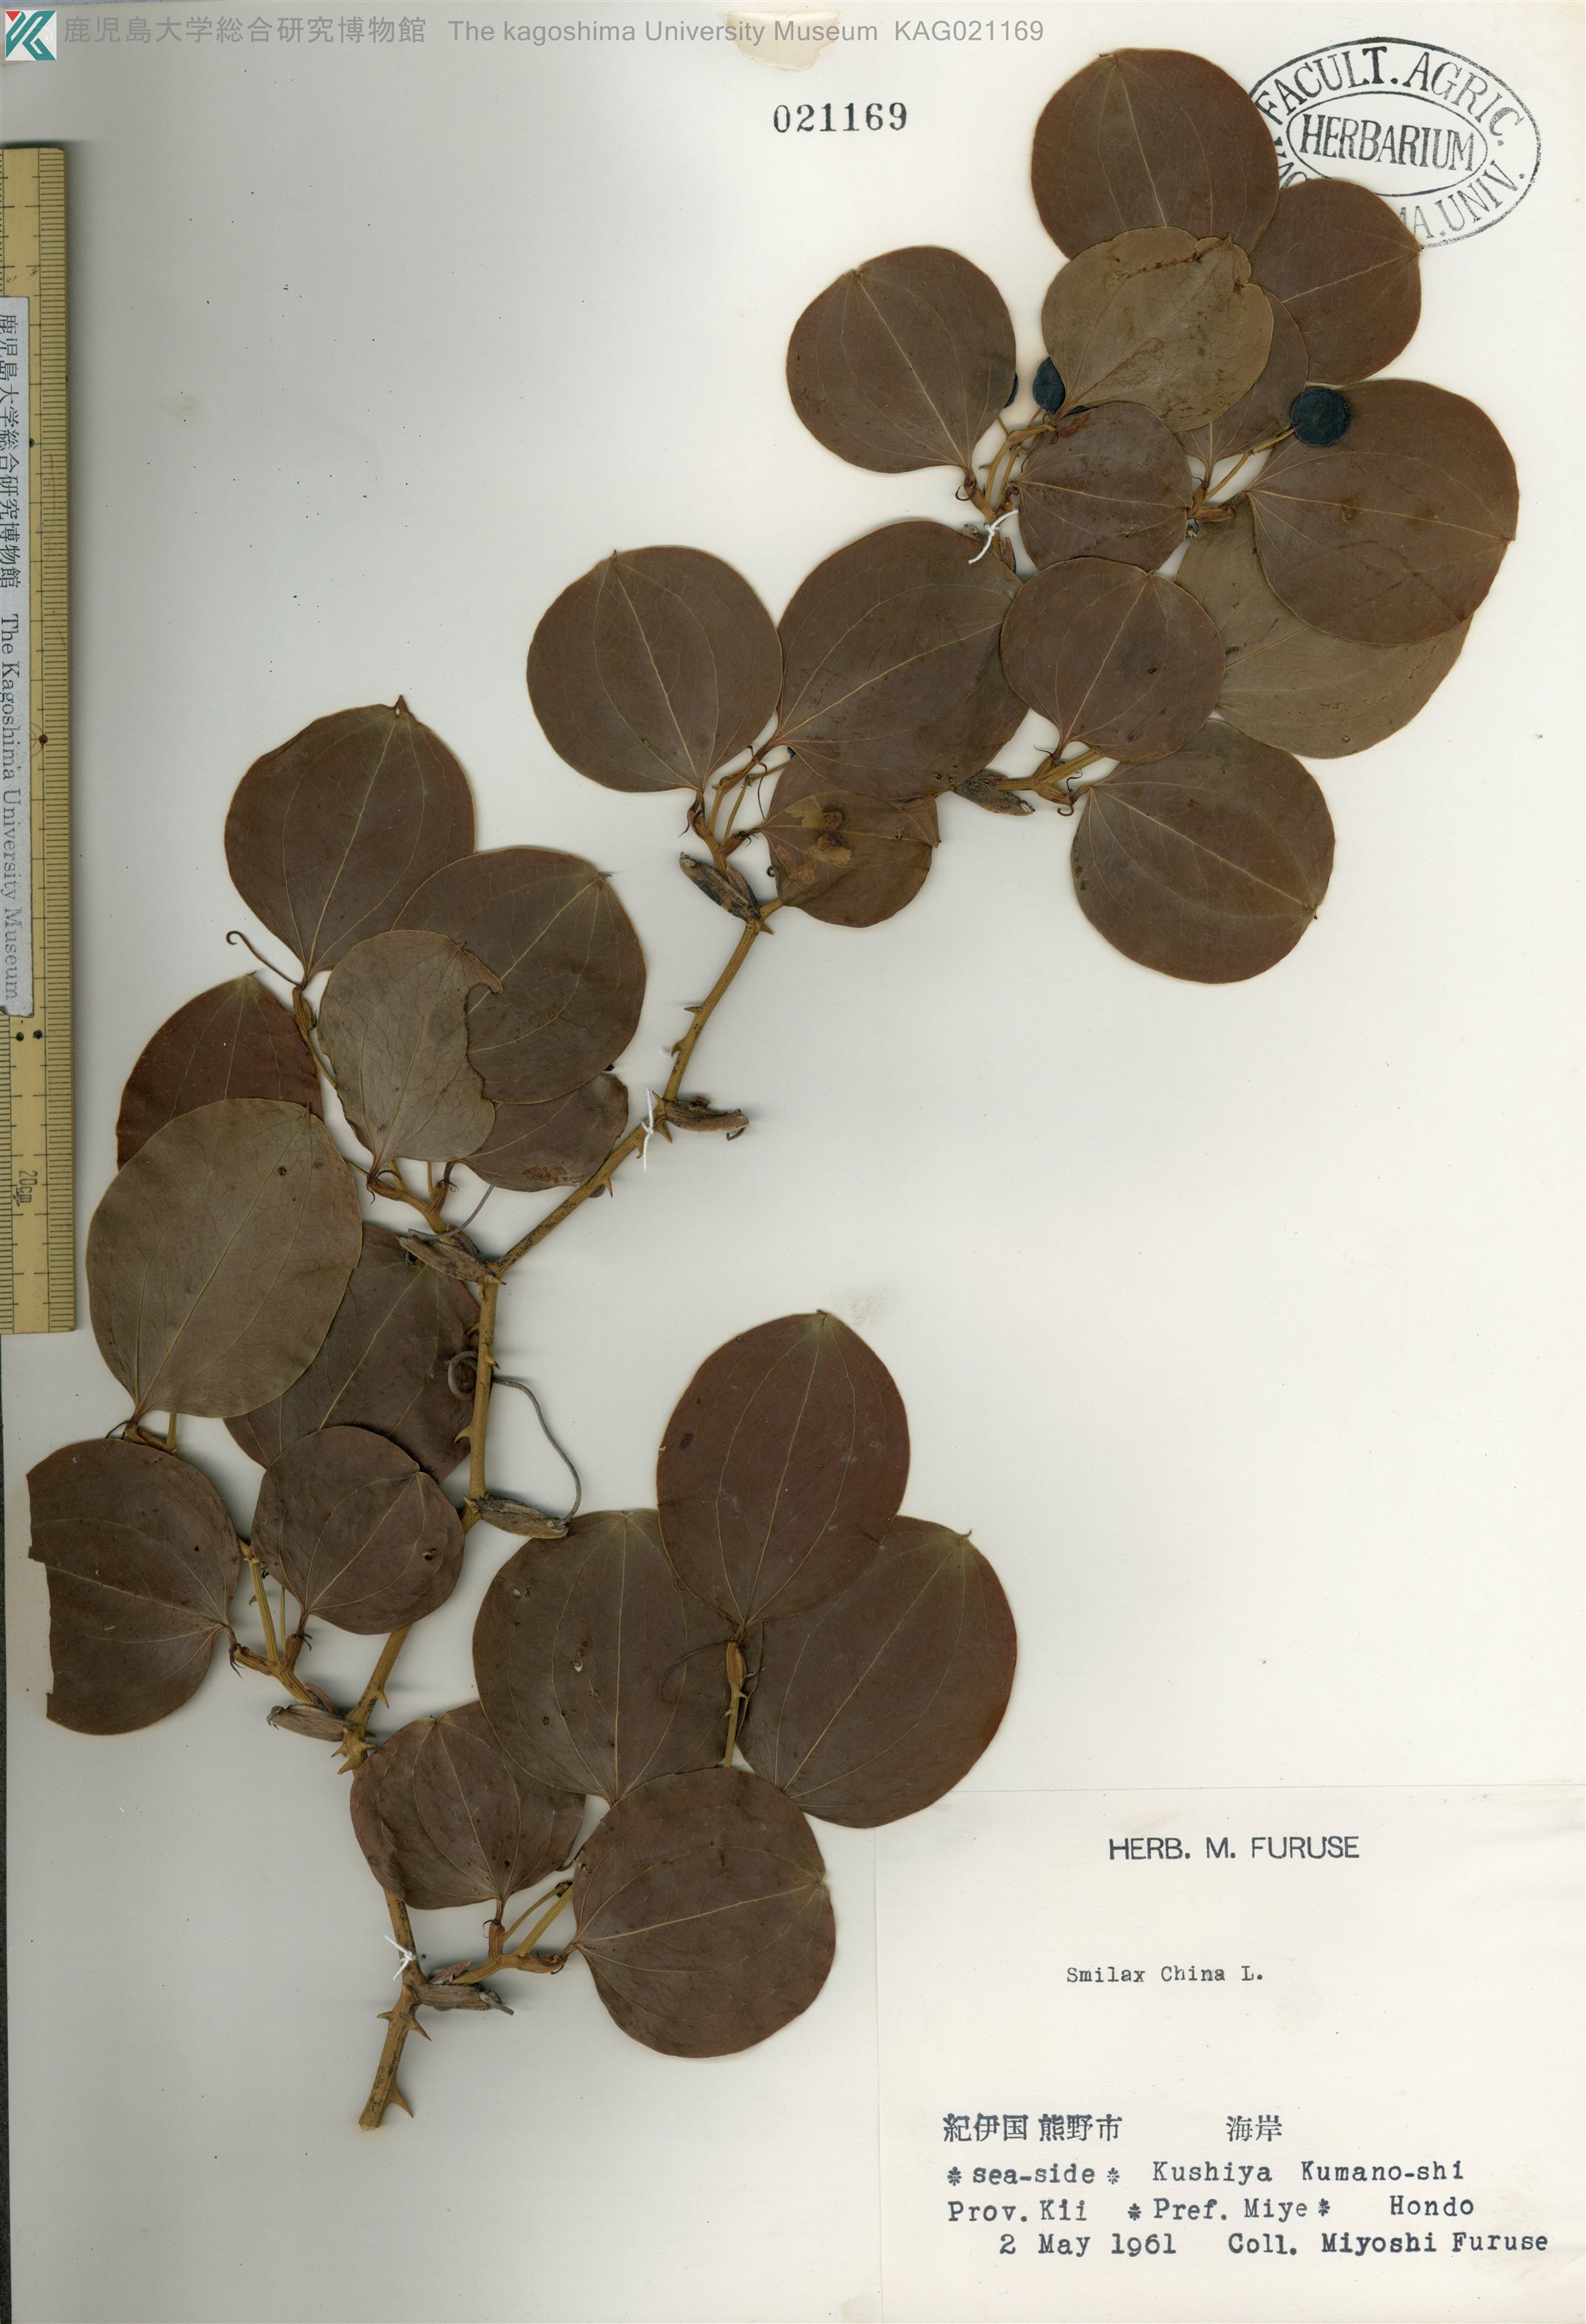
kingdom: Plantae
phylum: Tracheophyta
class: Liliopsida
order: Liliales
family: Smilacaceae
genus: Smilax
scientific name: Smilax china
